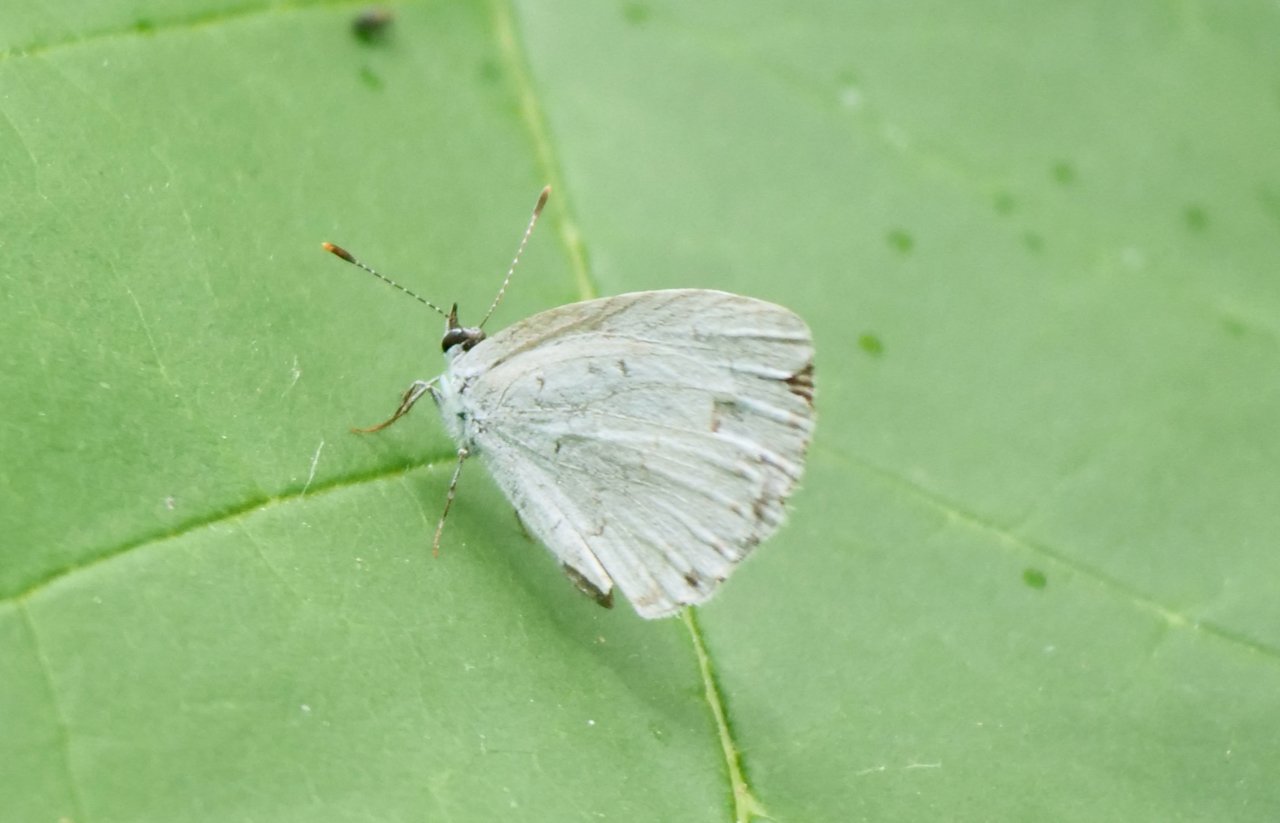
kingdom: Animalia
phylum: Arthropoda
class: Insecta
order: Lepidoptera
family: Lycaenidae
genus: Celastrina
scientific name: Celastrina
